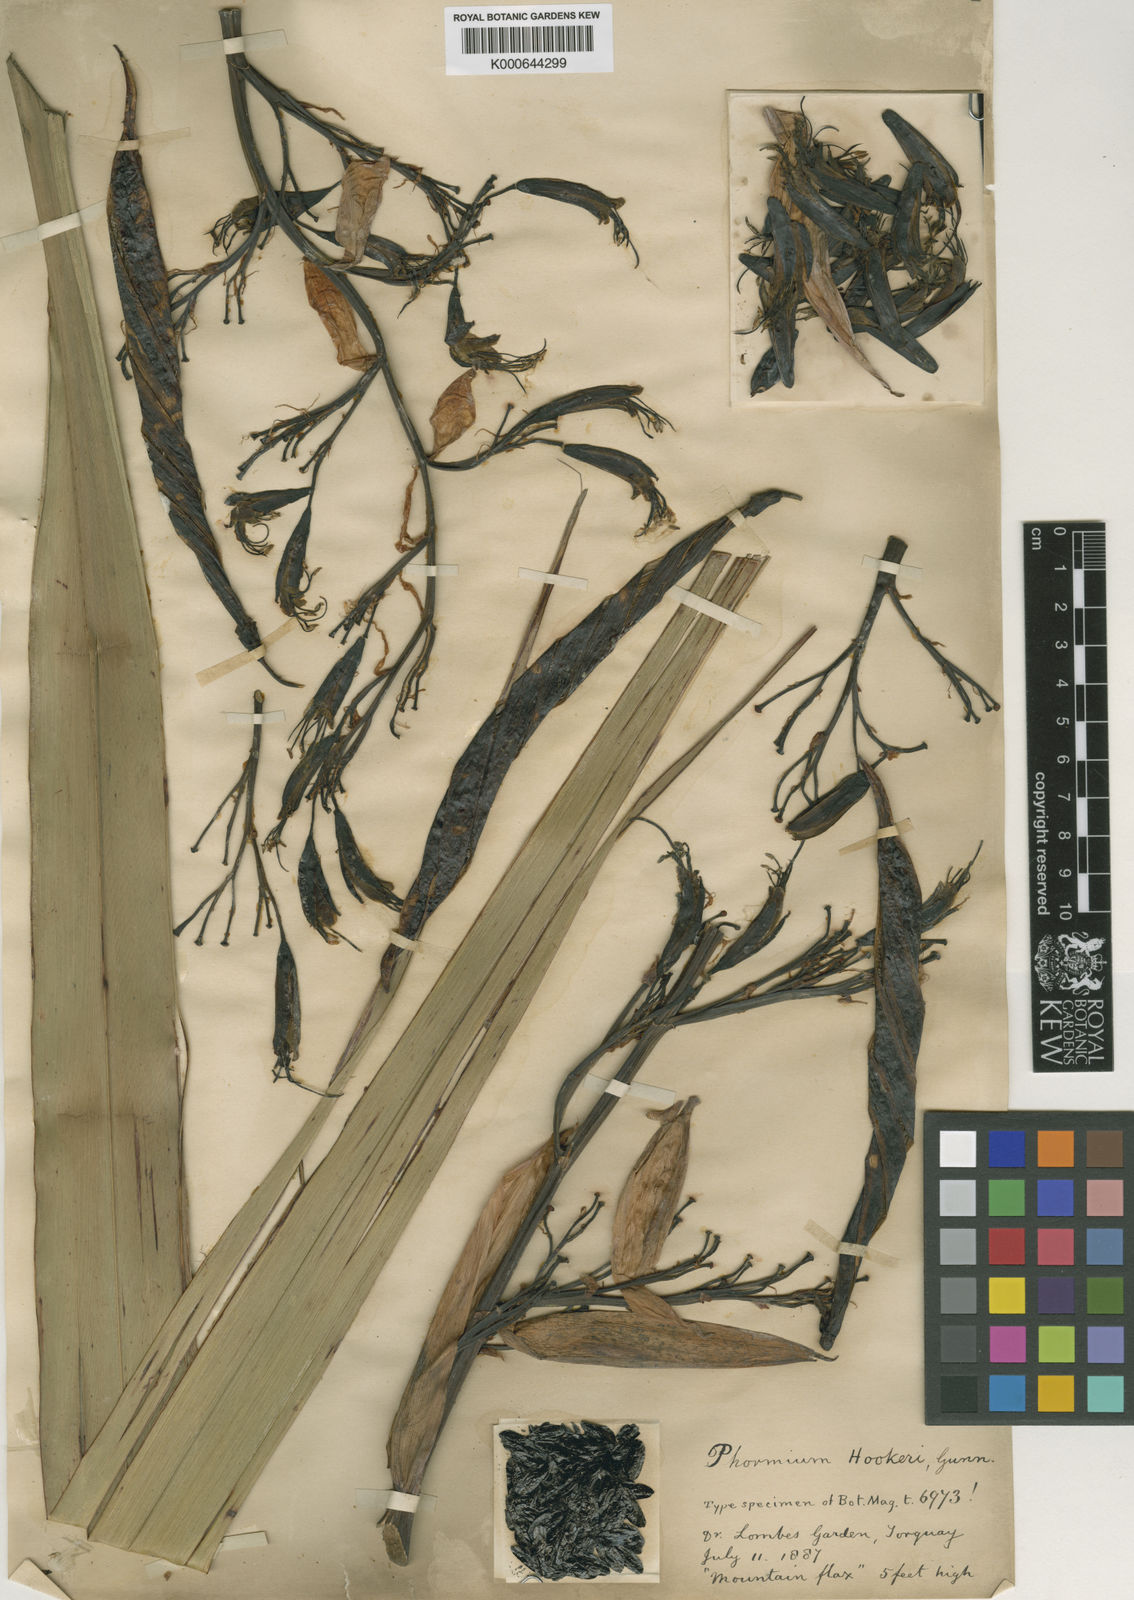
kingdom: Plantae
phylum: Tracheophyta
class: Liliopsida
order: Asparagales
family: Asphodelaceae
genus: Phormium
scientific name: Phormium
